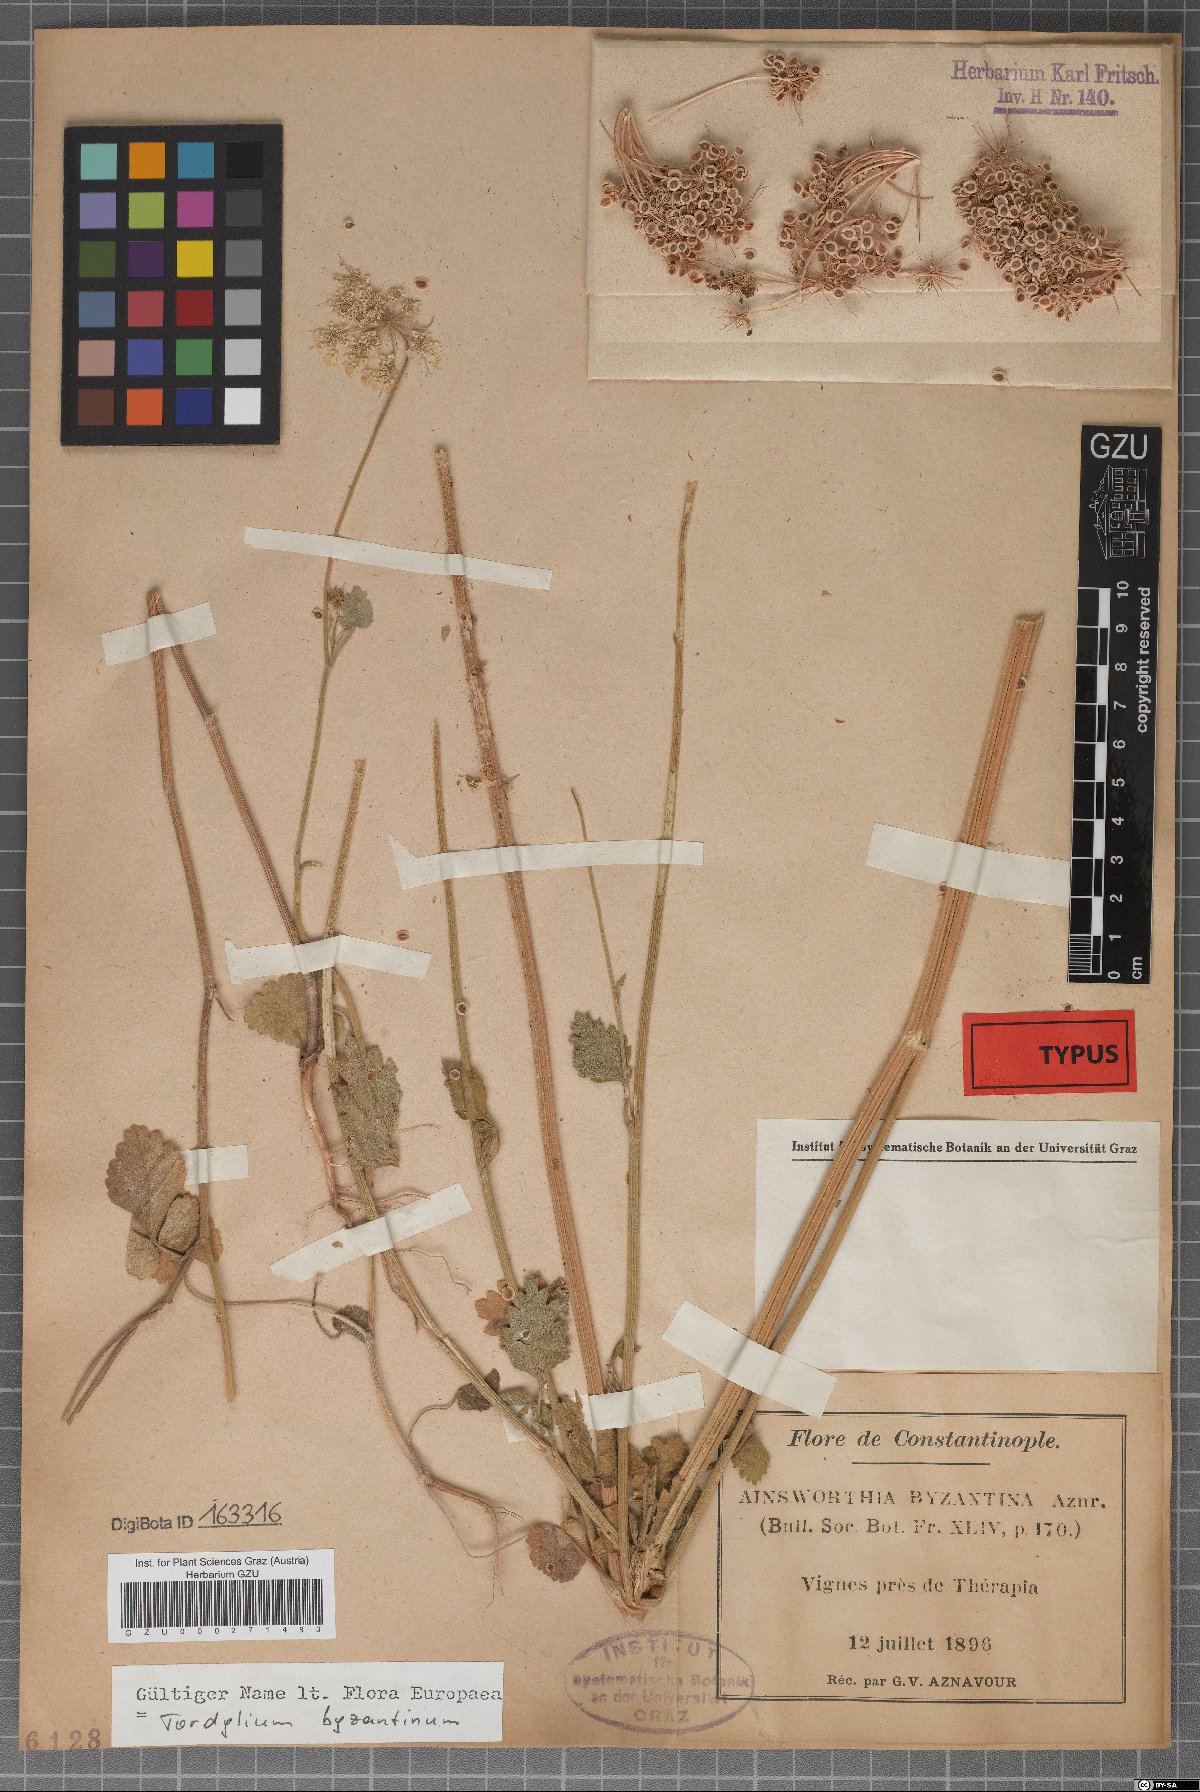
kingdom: Plantae
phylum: Tracheophyta
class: Magnoliopsida
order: Apiales
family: Apiaceae
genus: Ainsworthia
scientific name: Ainsworthia trachycarpa
